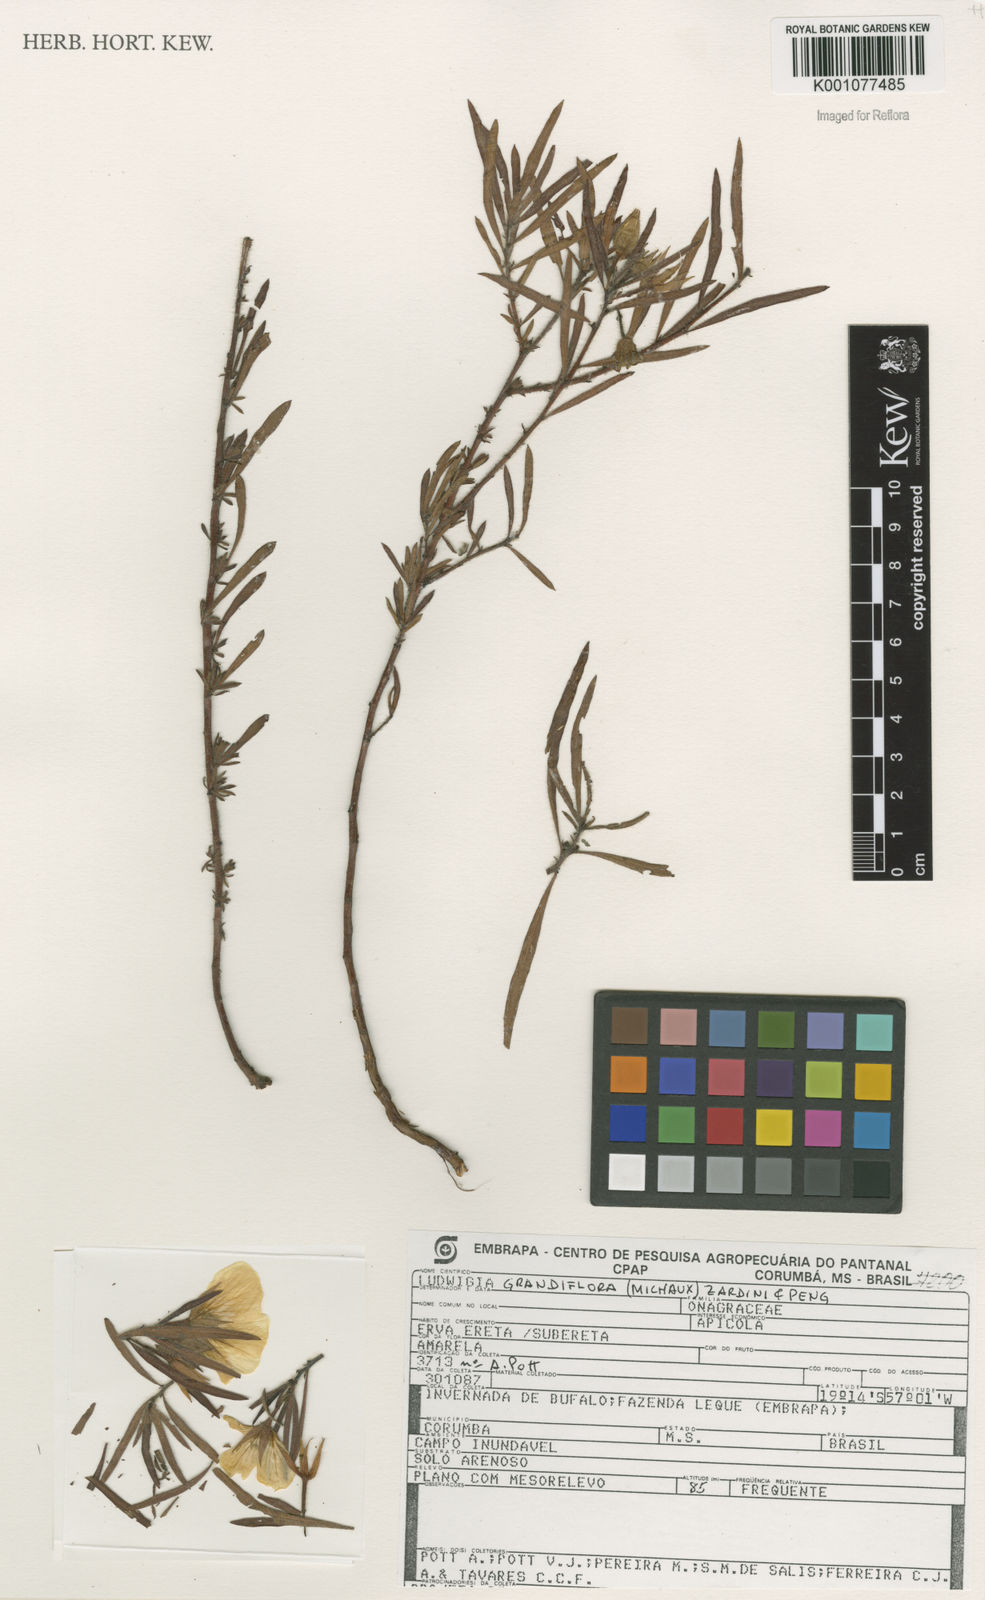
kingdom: Plantae
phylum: Tracheophyta
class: Magnoliopsida
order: Myrtales
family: Onagraceae
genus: Ludwigia
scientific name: Ludwigia affinis
